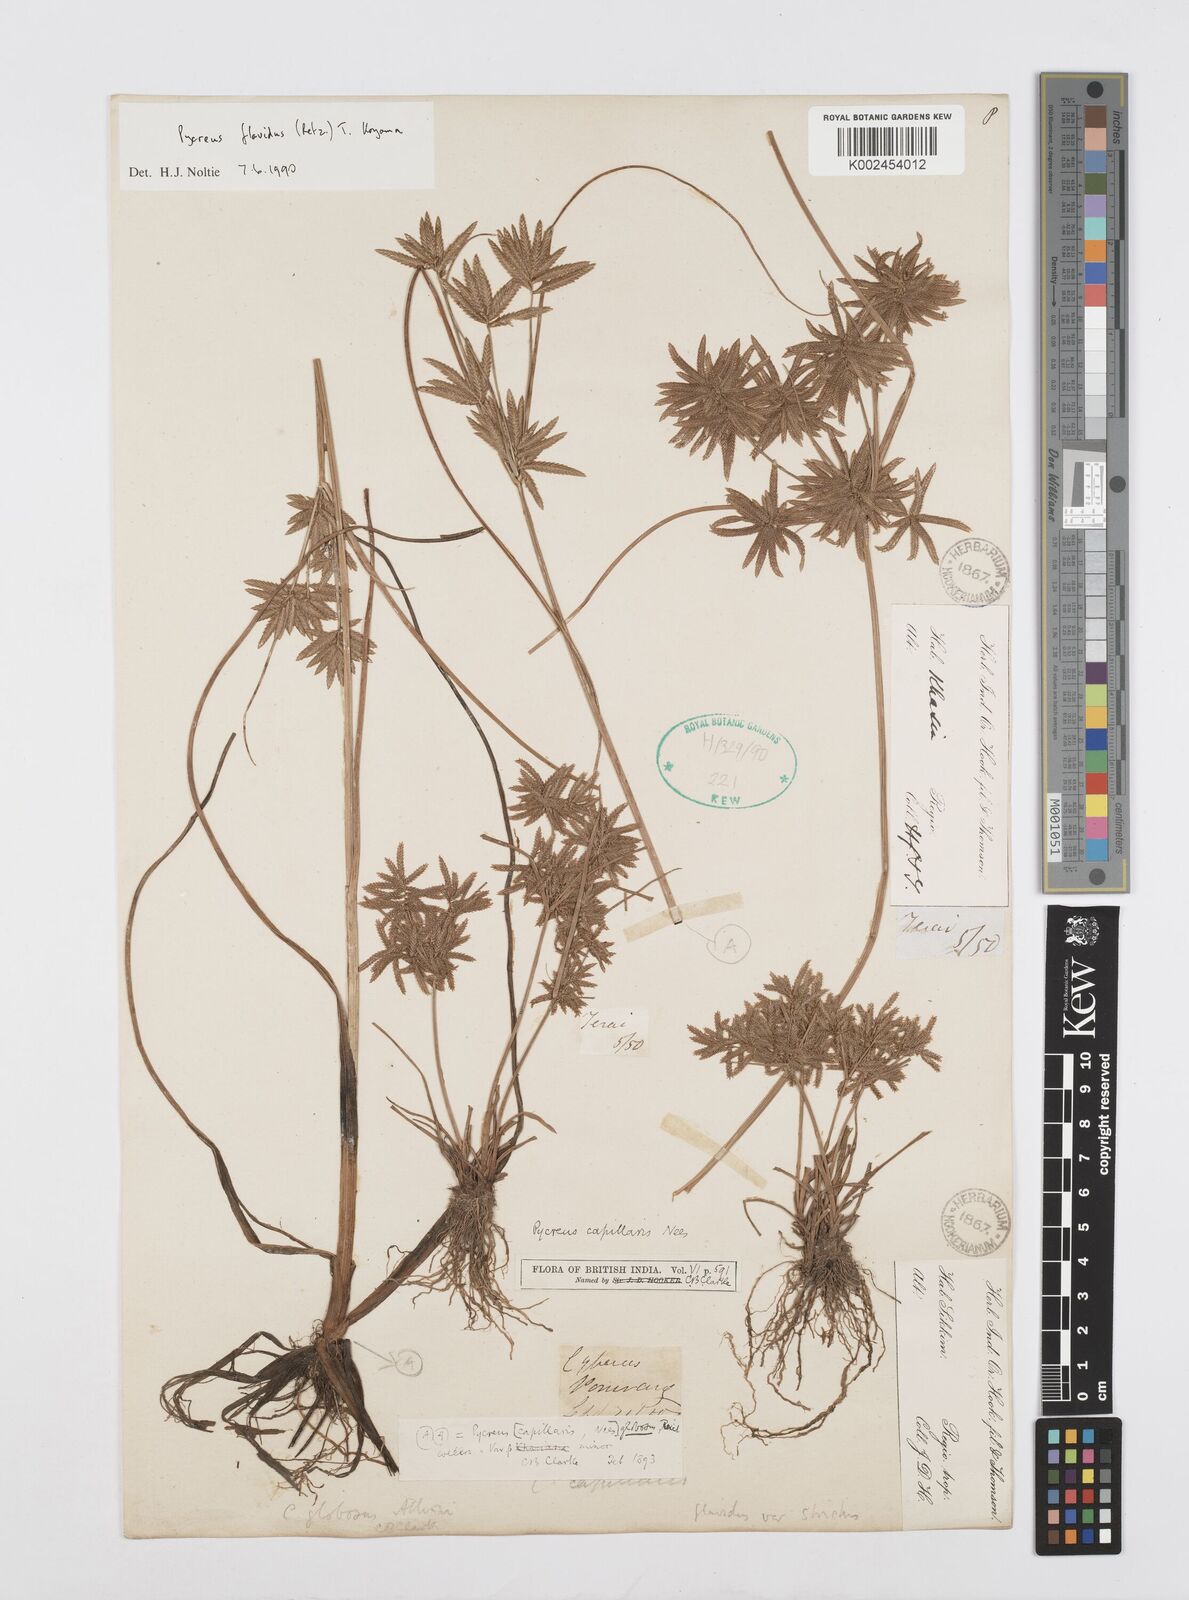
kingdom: Plantae
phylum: Tracheophyta
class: Liliopsida
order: Poales
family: Cyperaceae
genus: Cyperus
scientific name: Cyperus flavidus
